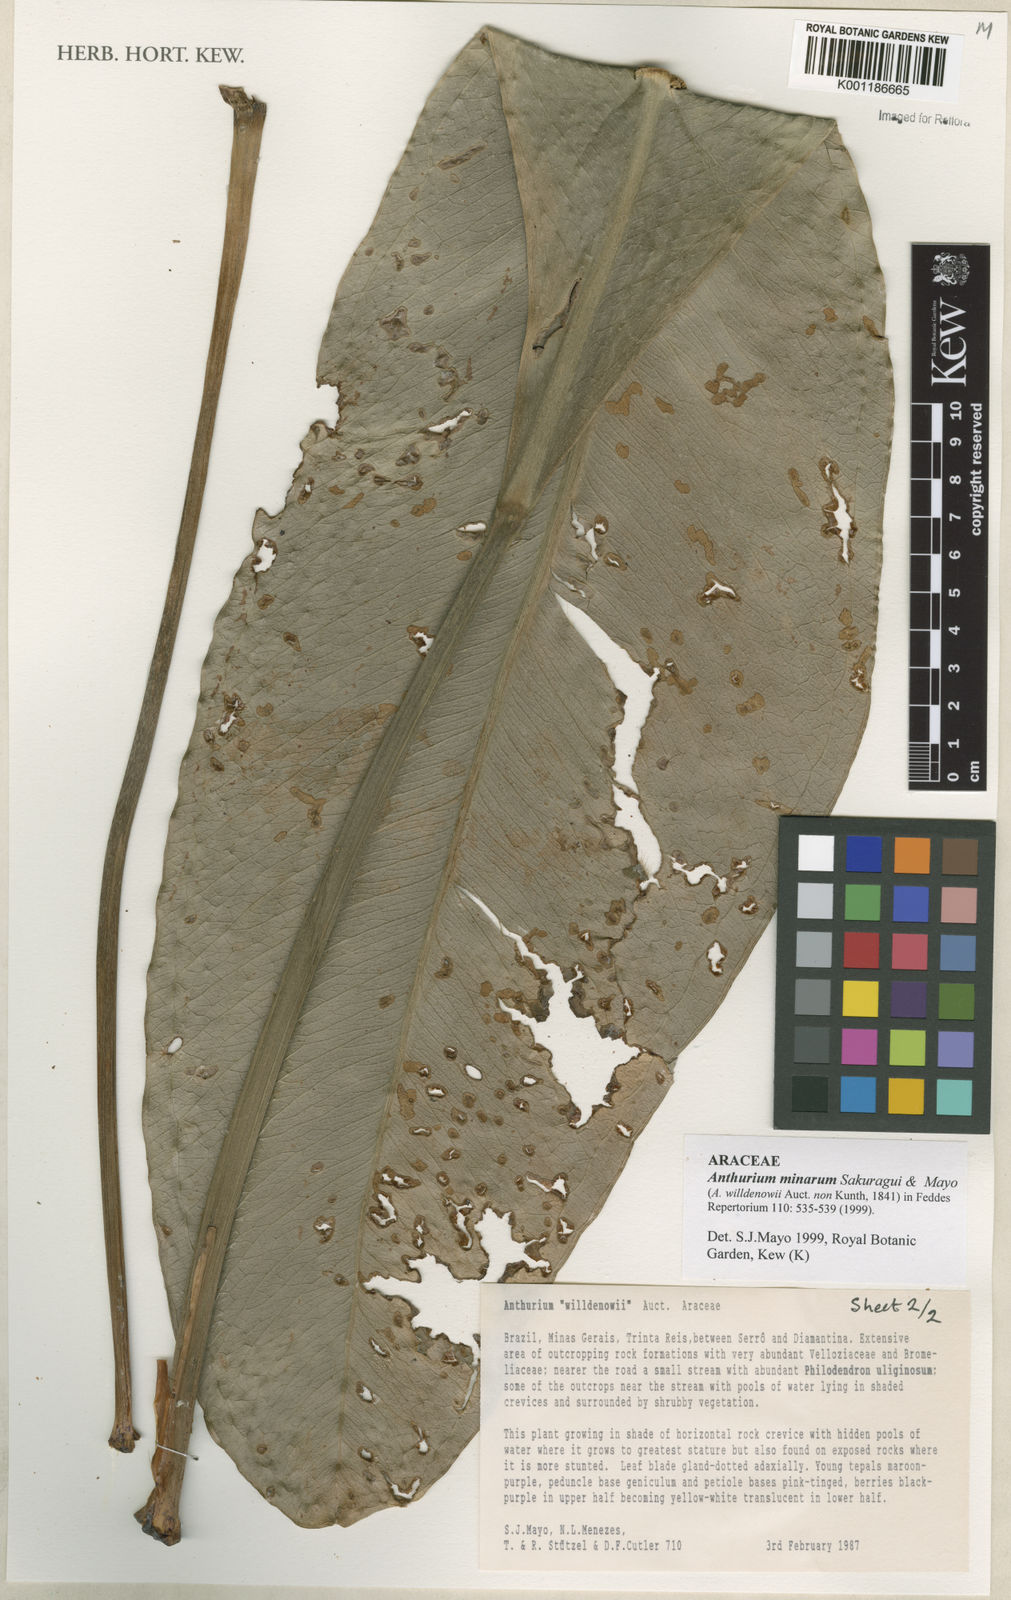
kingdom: Plantae
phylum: Tracheophyta
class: Liliopsida
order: Alismatales
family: Araceae
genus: Anthurium
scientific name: Anthurium minarum
